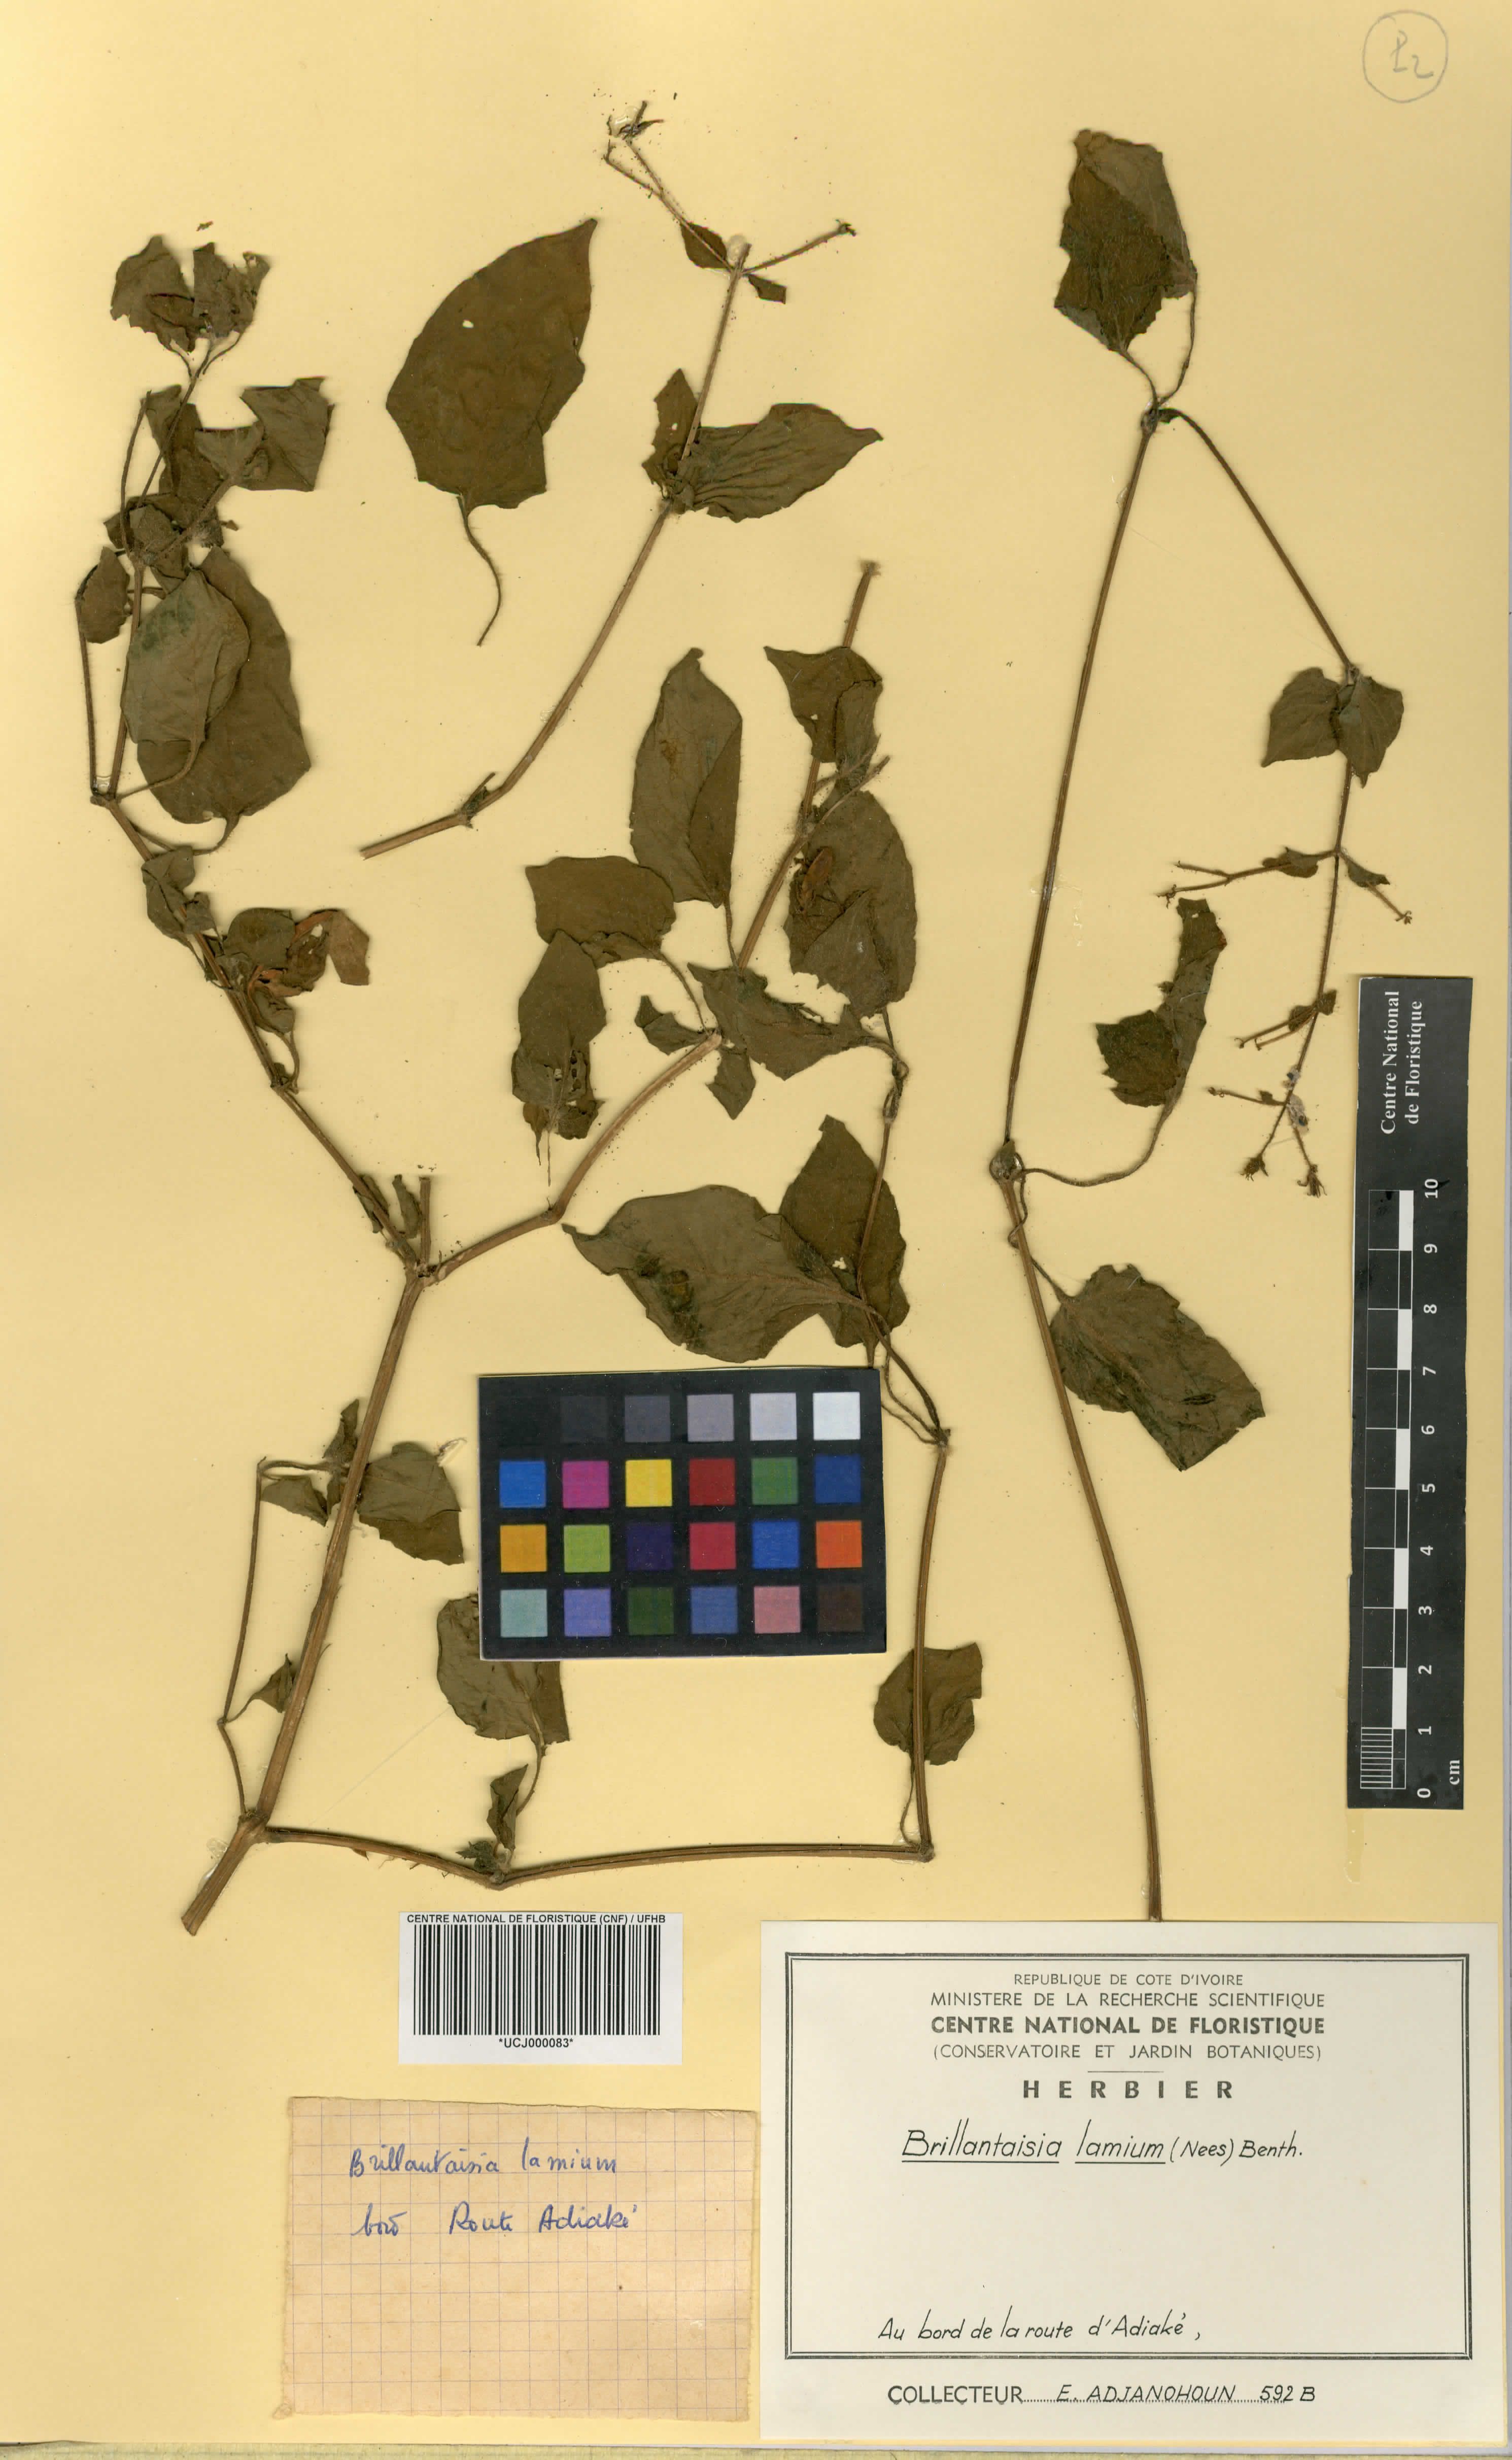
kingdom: Plantae
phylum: Tracheophyta
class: Magnoliopsida
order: Lamiales
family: Acanthaceae
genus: Brillantaisia
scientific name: Brillantaisia lamium
